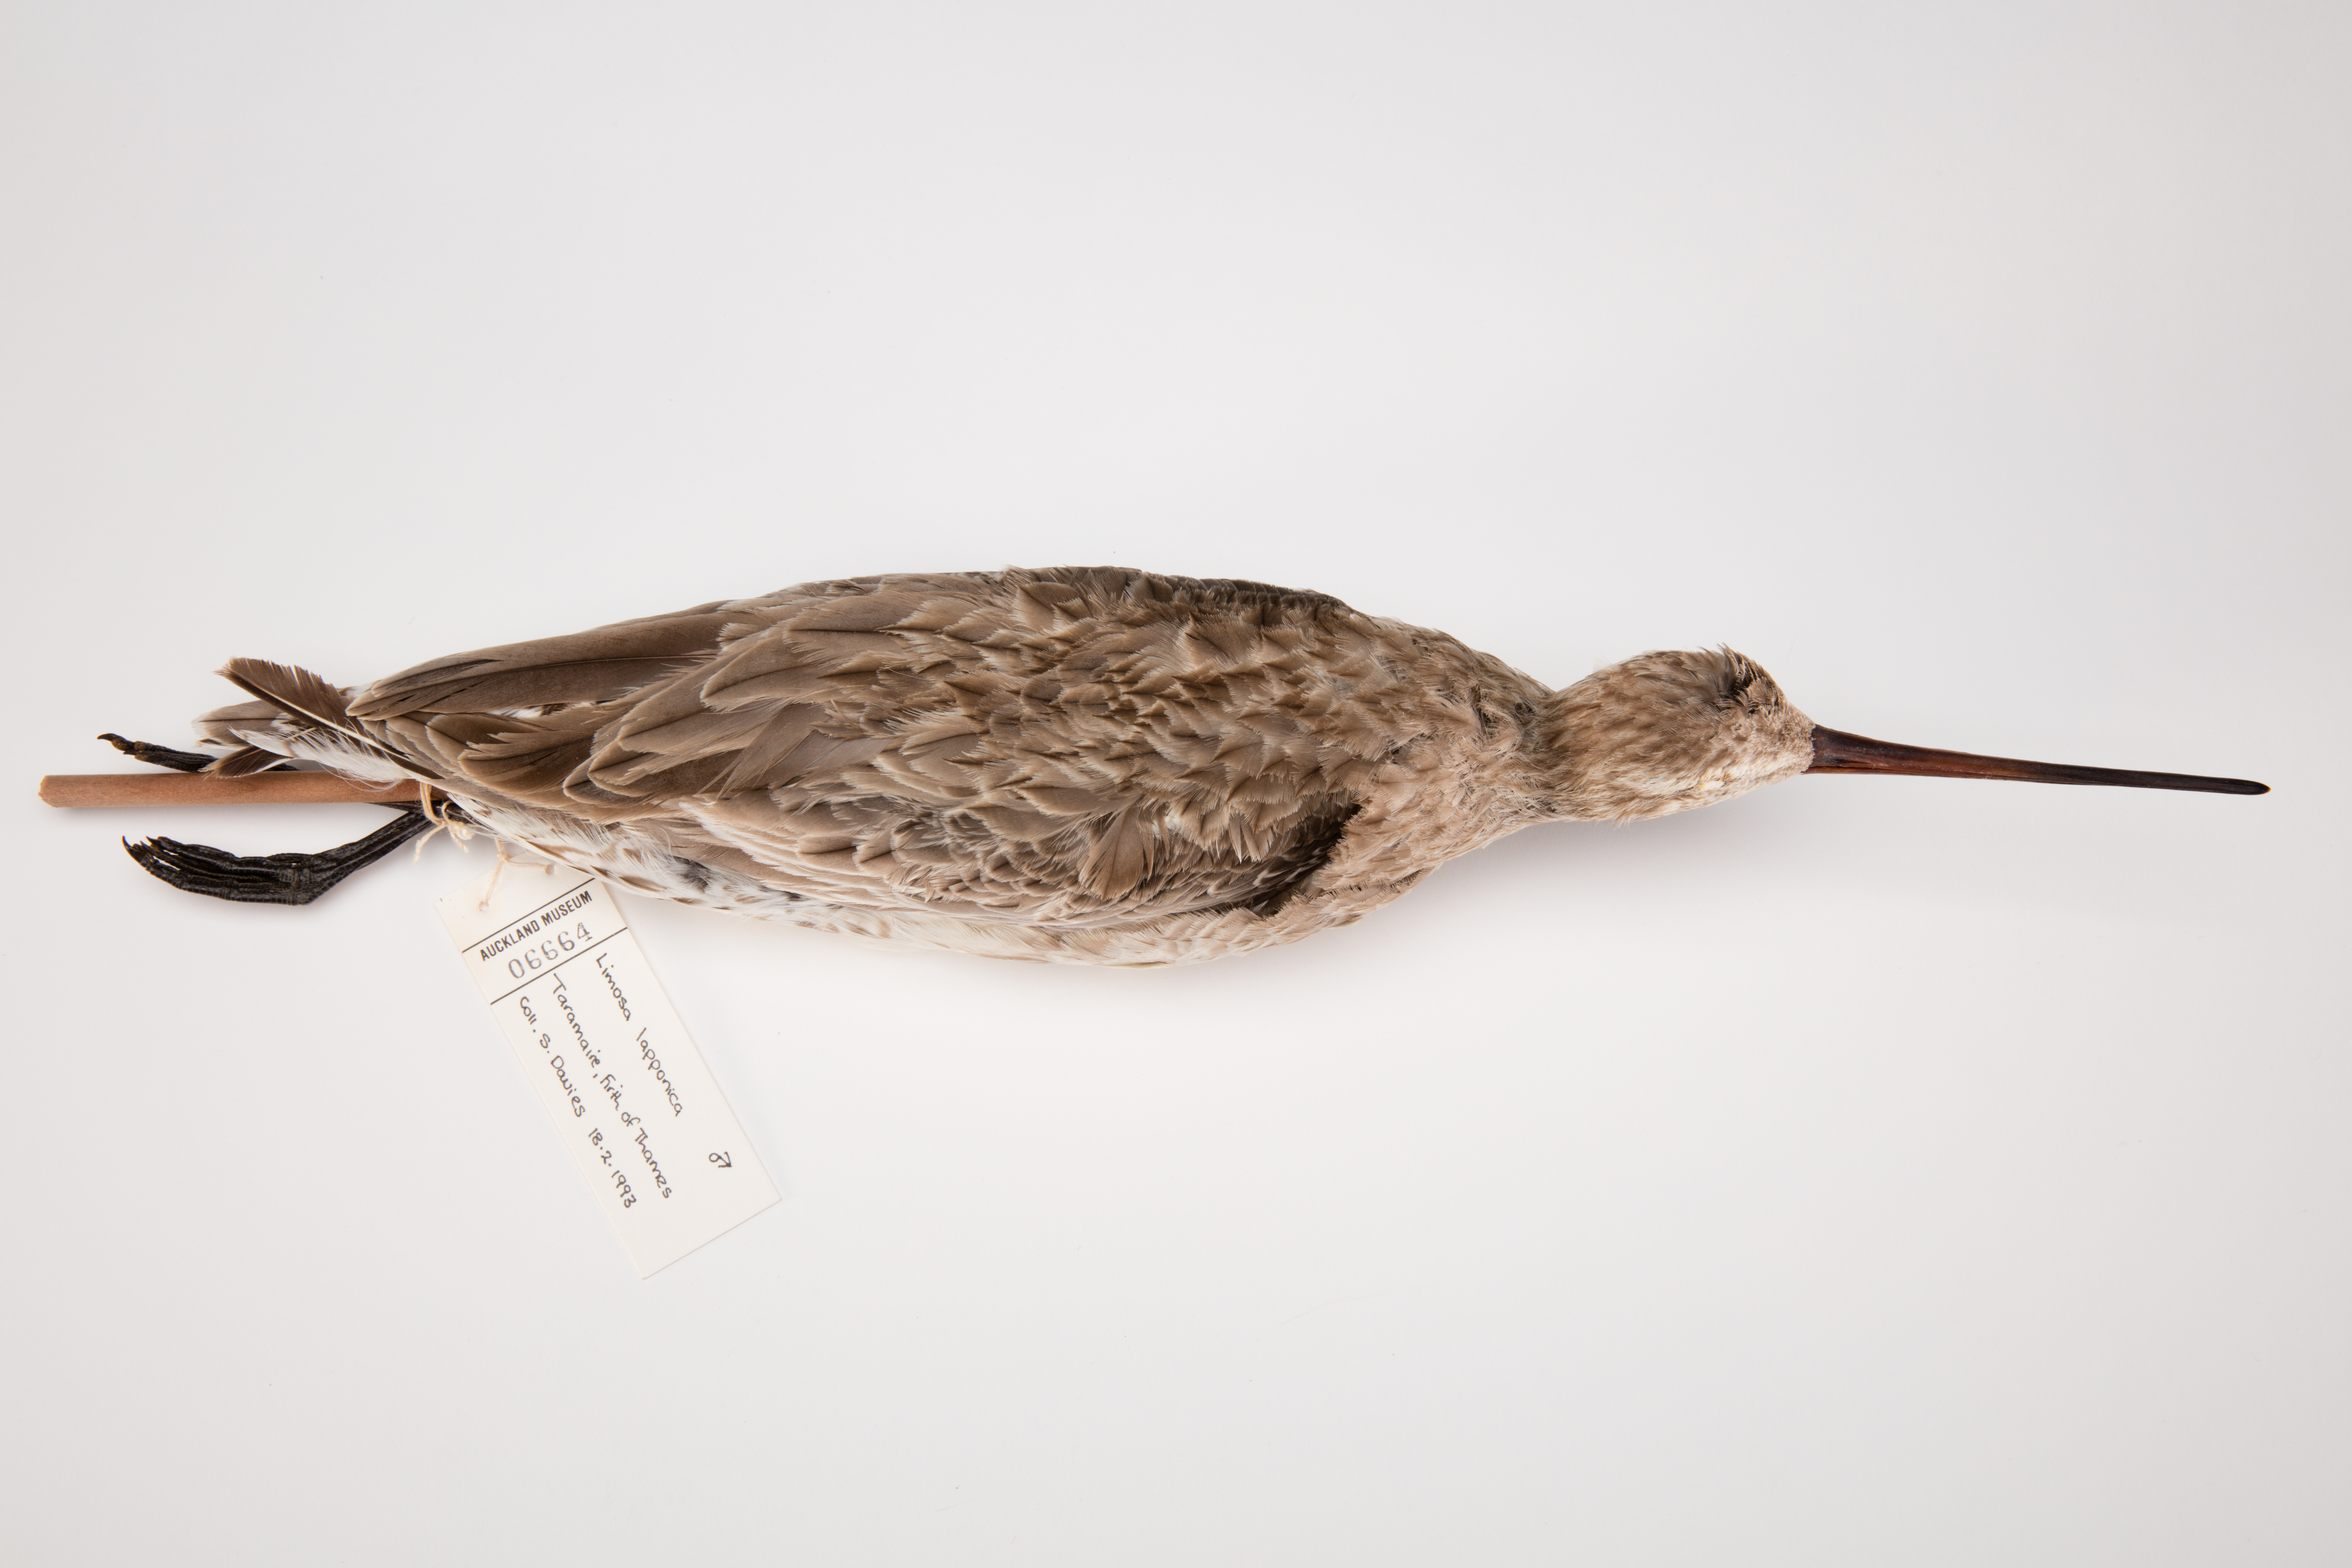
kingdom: Animalia
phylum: Chordata
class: Aves
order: Charadriiformes
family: Scolopacidae
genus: Limosa
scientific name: Limosa lapponica
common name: Bar-tailed godwit
